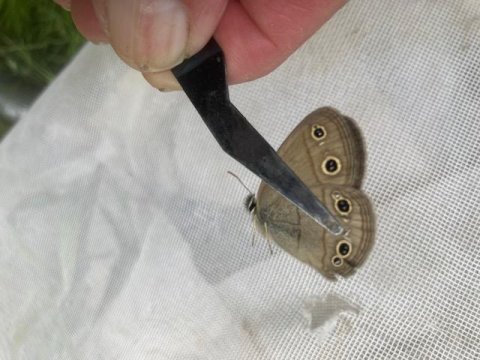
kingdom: Animalia
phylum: Arthropoda
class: Insecta
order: Lepidoptera
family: Nymphalidae
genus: Euptychia
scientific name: Euptychia cymela
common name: Little Wood Satyr
